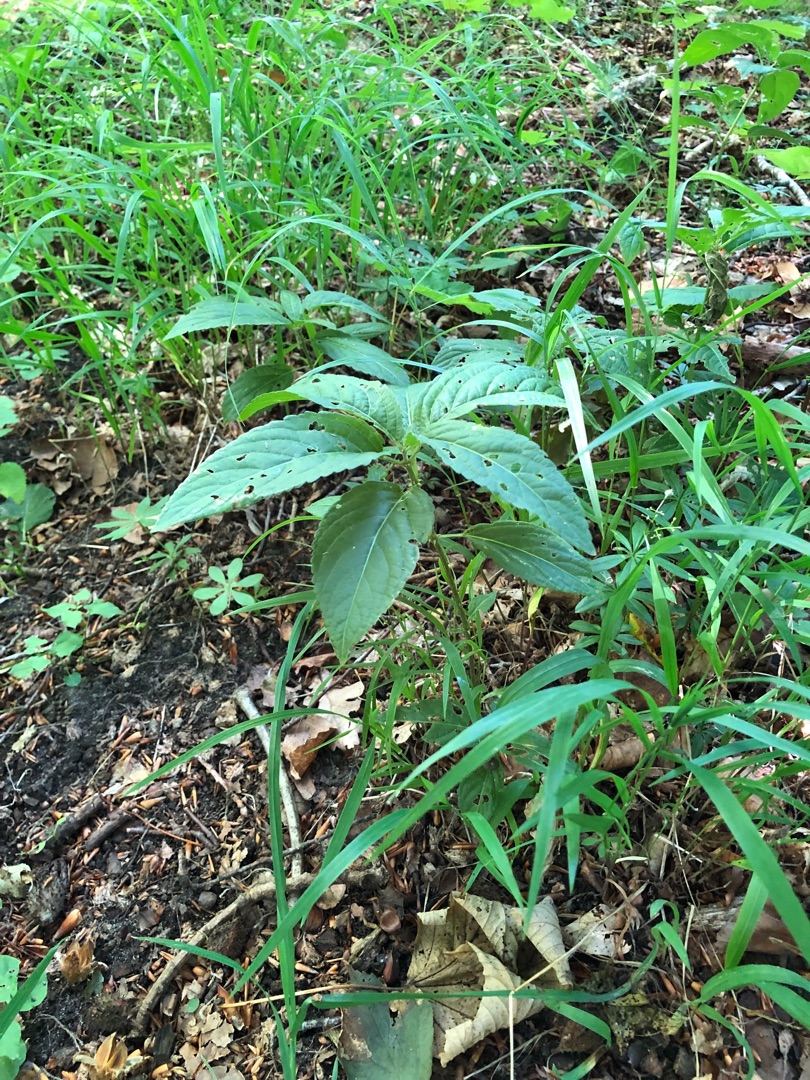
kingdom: Plantae
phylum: Tracheophyta
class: Magnoliopsida
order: Malpighiales
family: Euphorbiaceae
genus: Mercurialis
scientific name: Mercurialis perennis
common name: Almindelig bingelurt
